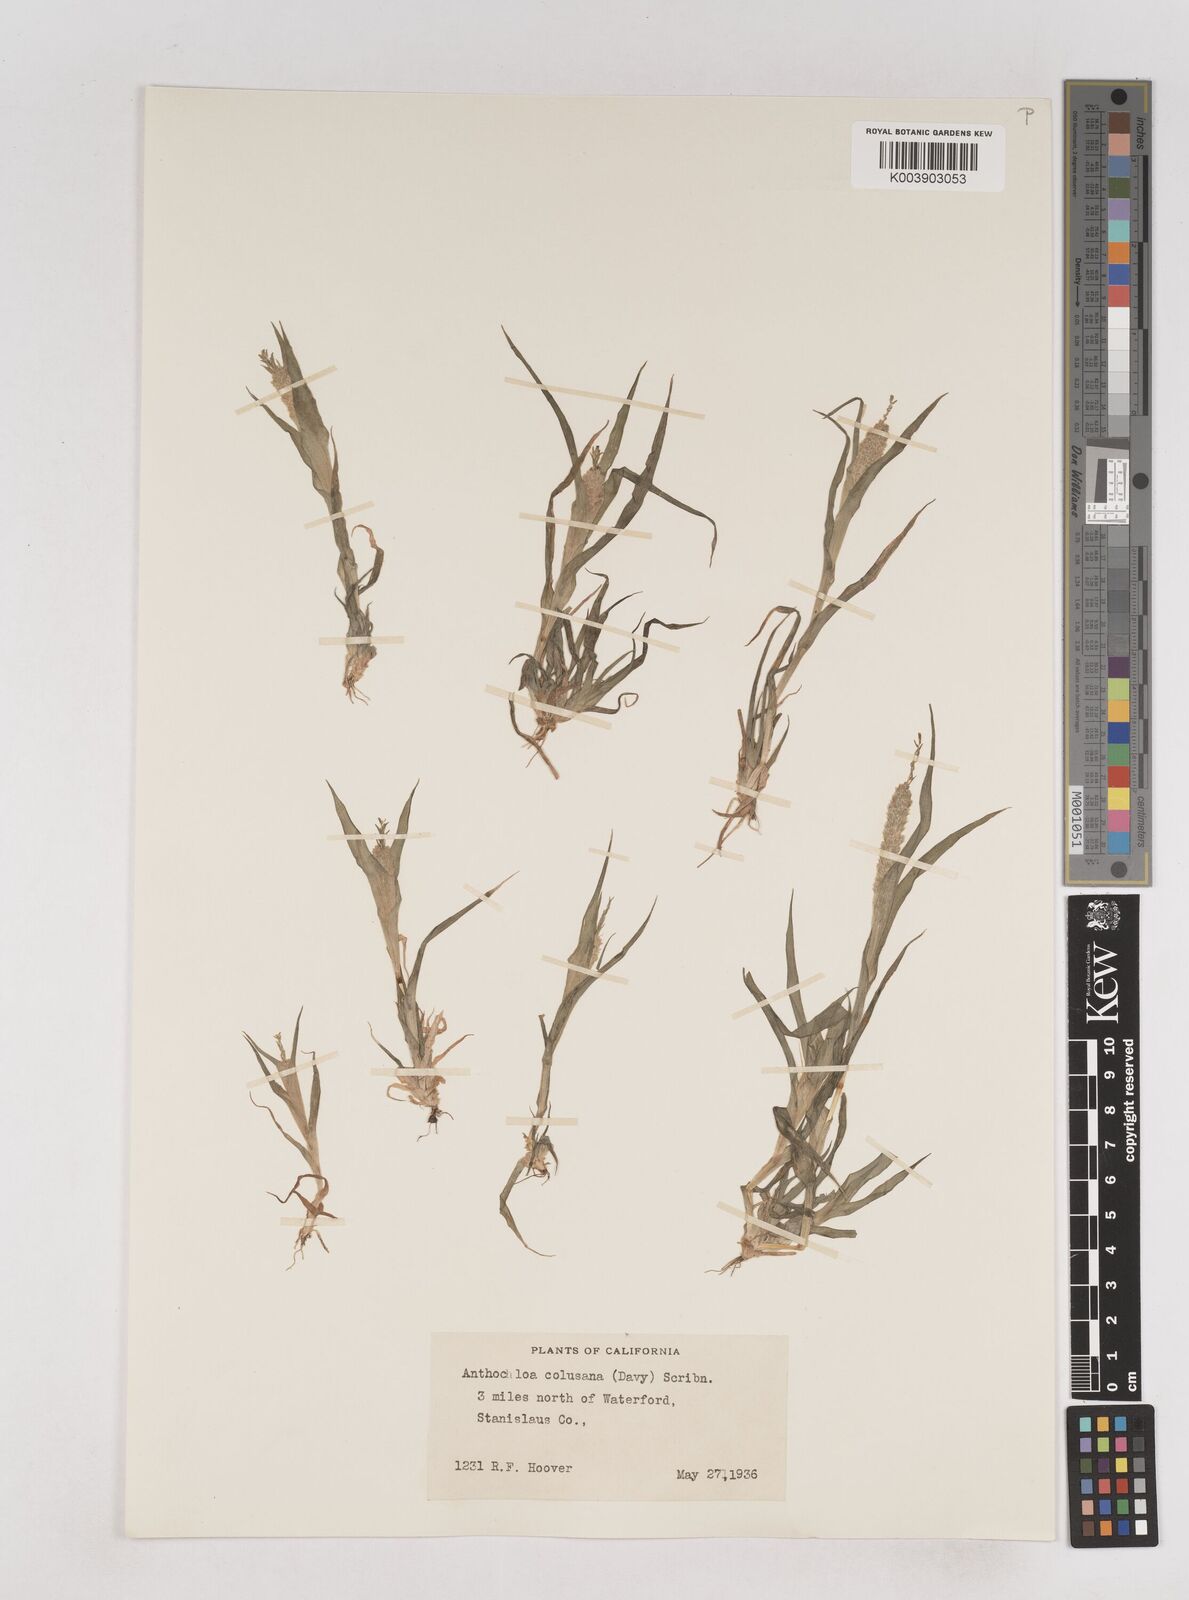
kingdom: Plantae
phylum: Tracheophyta
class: Liliopsida
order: Poales
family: Poaceae
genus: Neostapfia
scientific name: Neostapfia colusana
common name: Colusa grass
